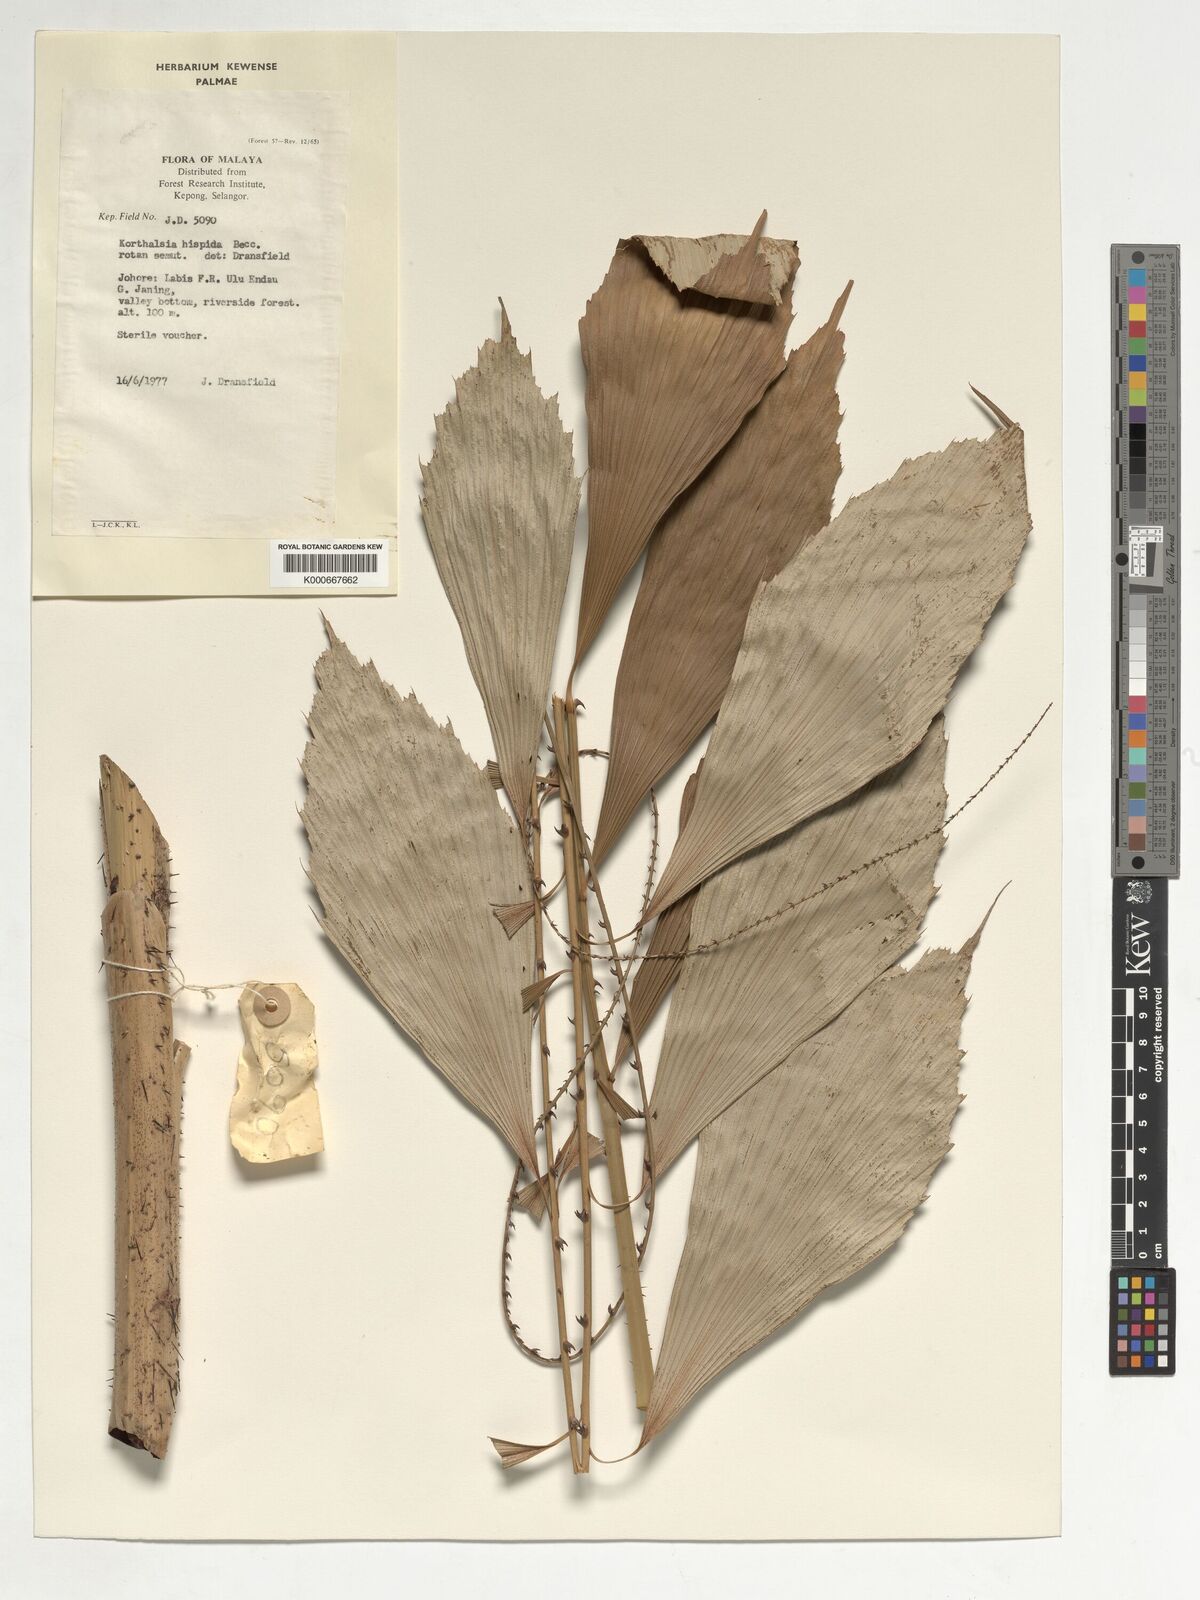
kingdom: Plantae
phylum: Tracheophyta
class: Liliopsida
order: Arecales
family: Arecaceae
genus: Korthalsia
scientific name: Korthalsia hispida
